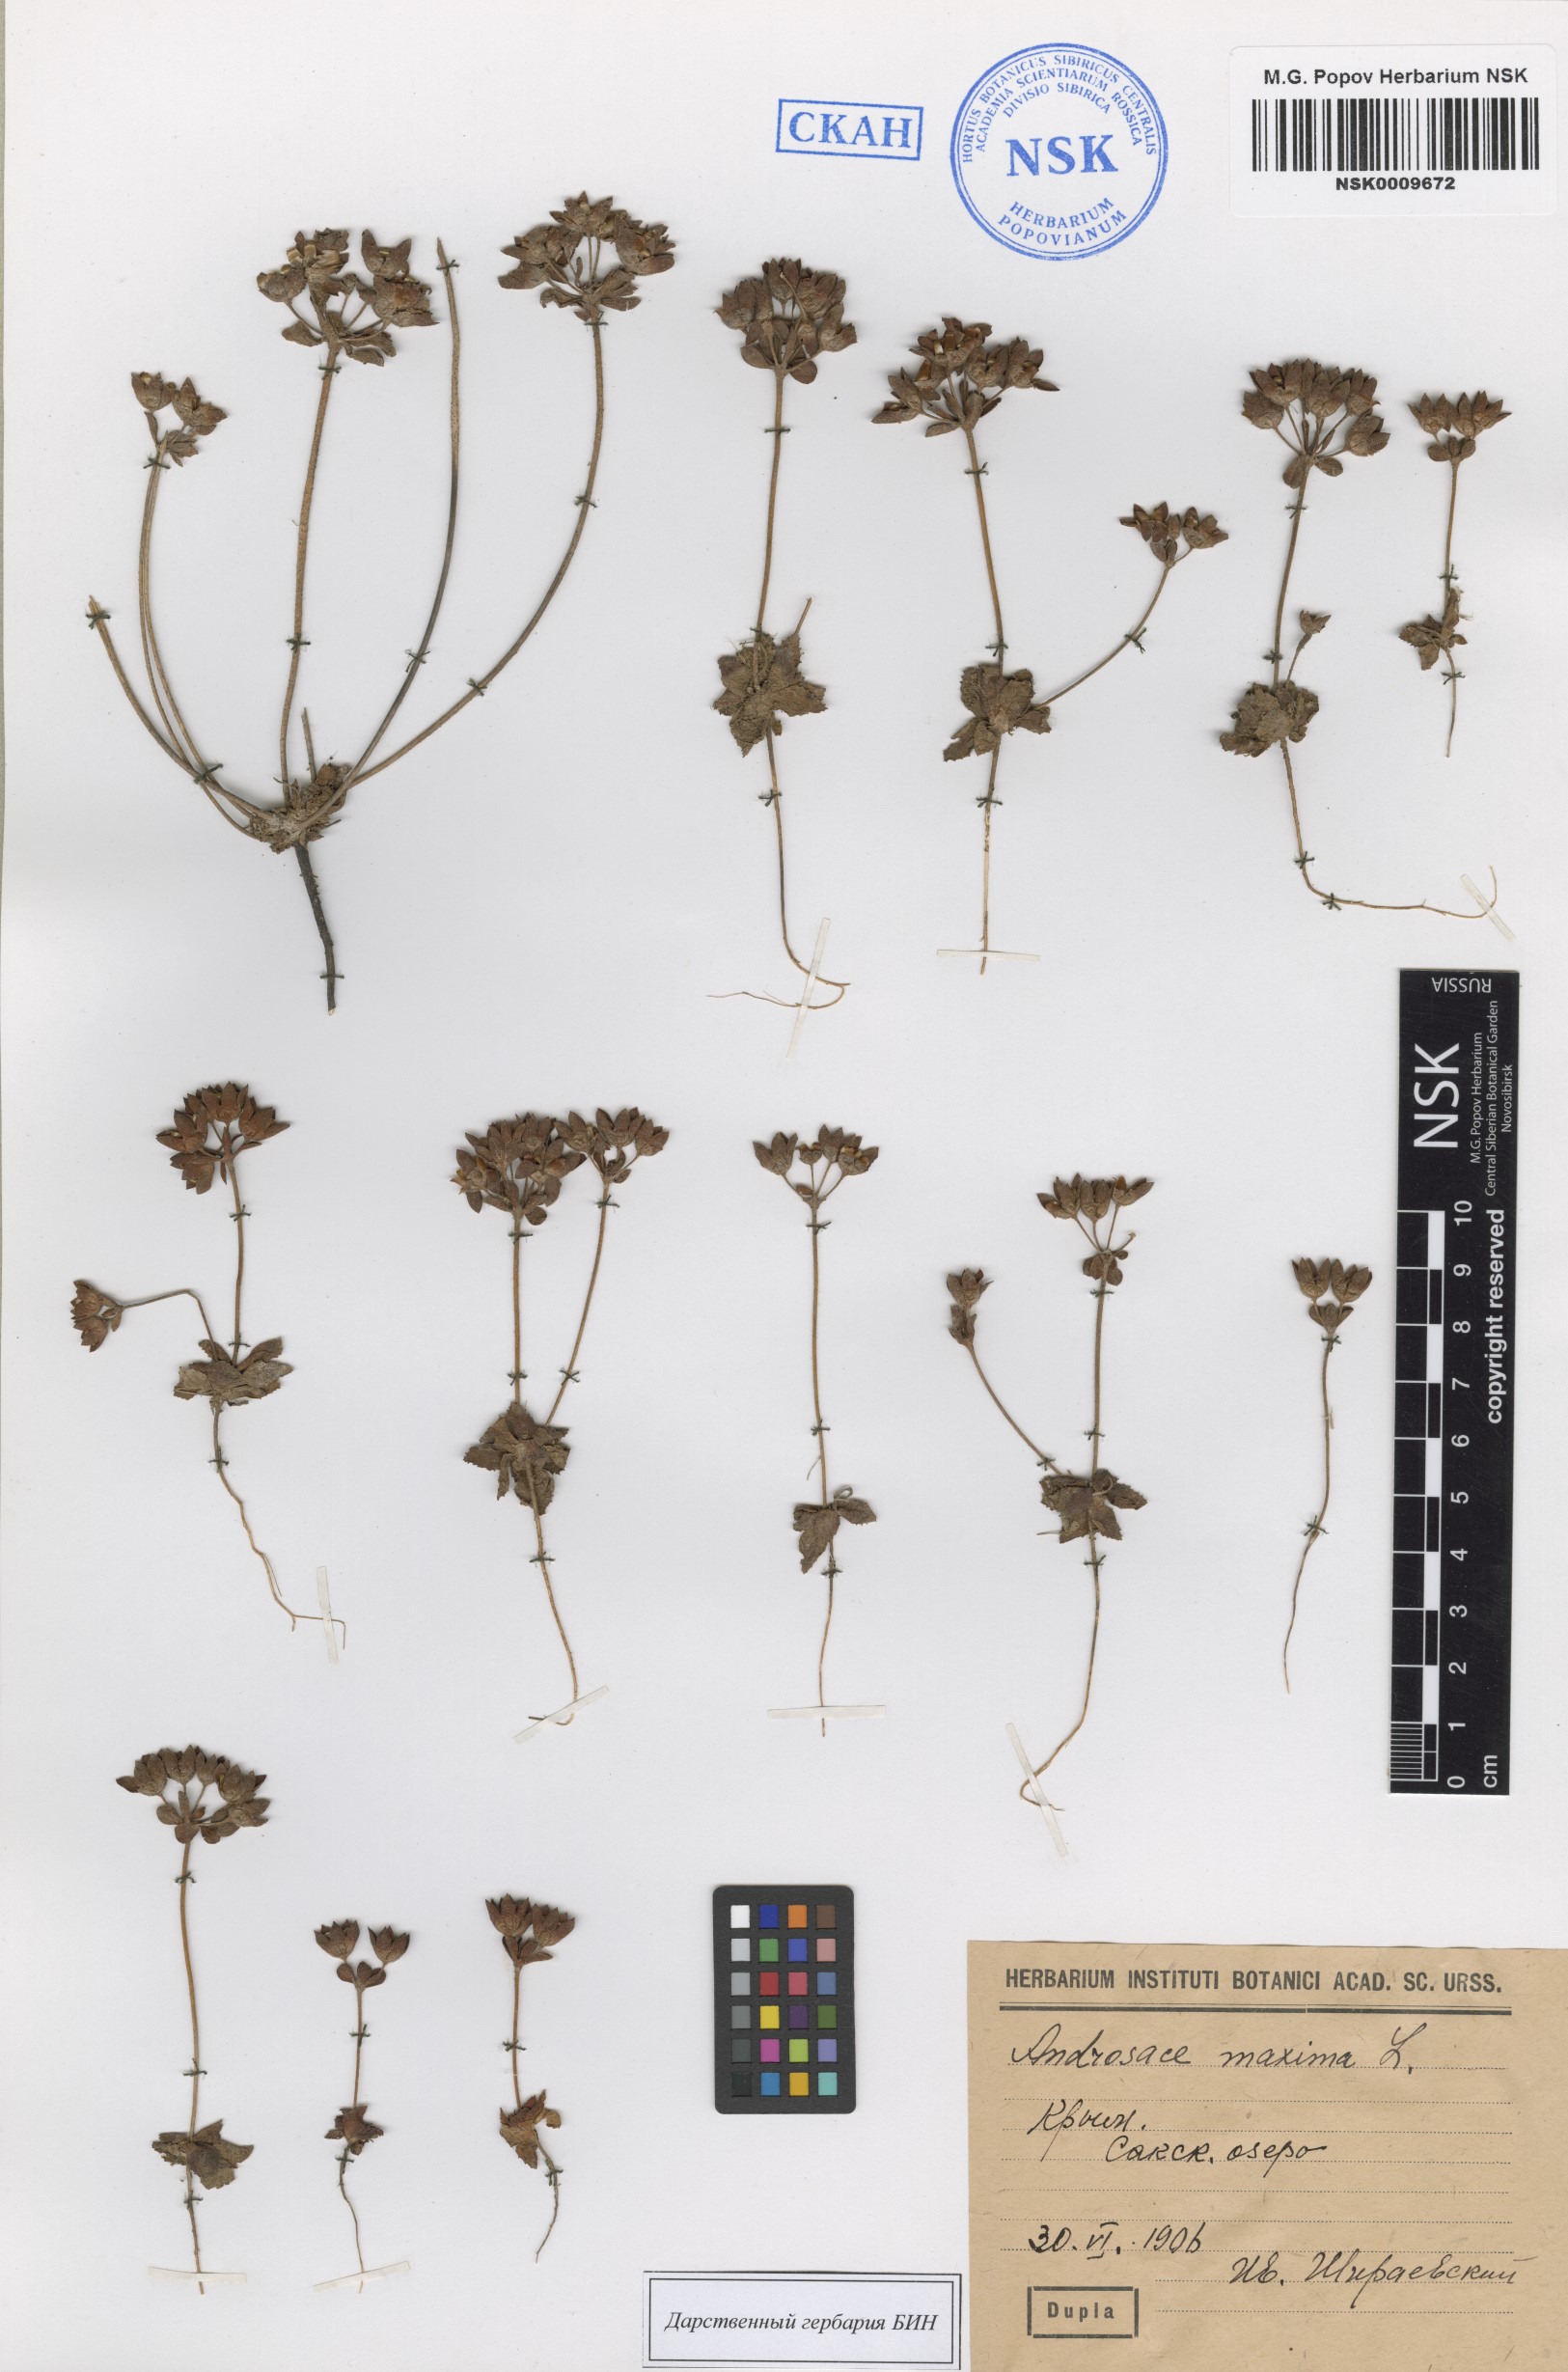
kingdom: Plantae
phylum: Tracheophyta
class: Magnoliopsida
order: Ericales
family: Primulaceae
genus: Androsace
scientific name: Androsace maxima
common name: Annual androsace
